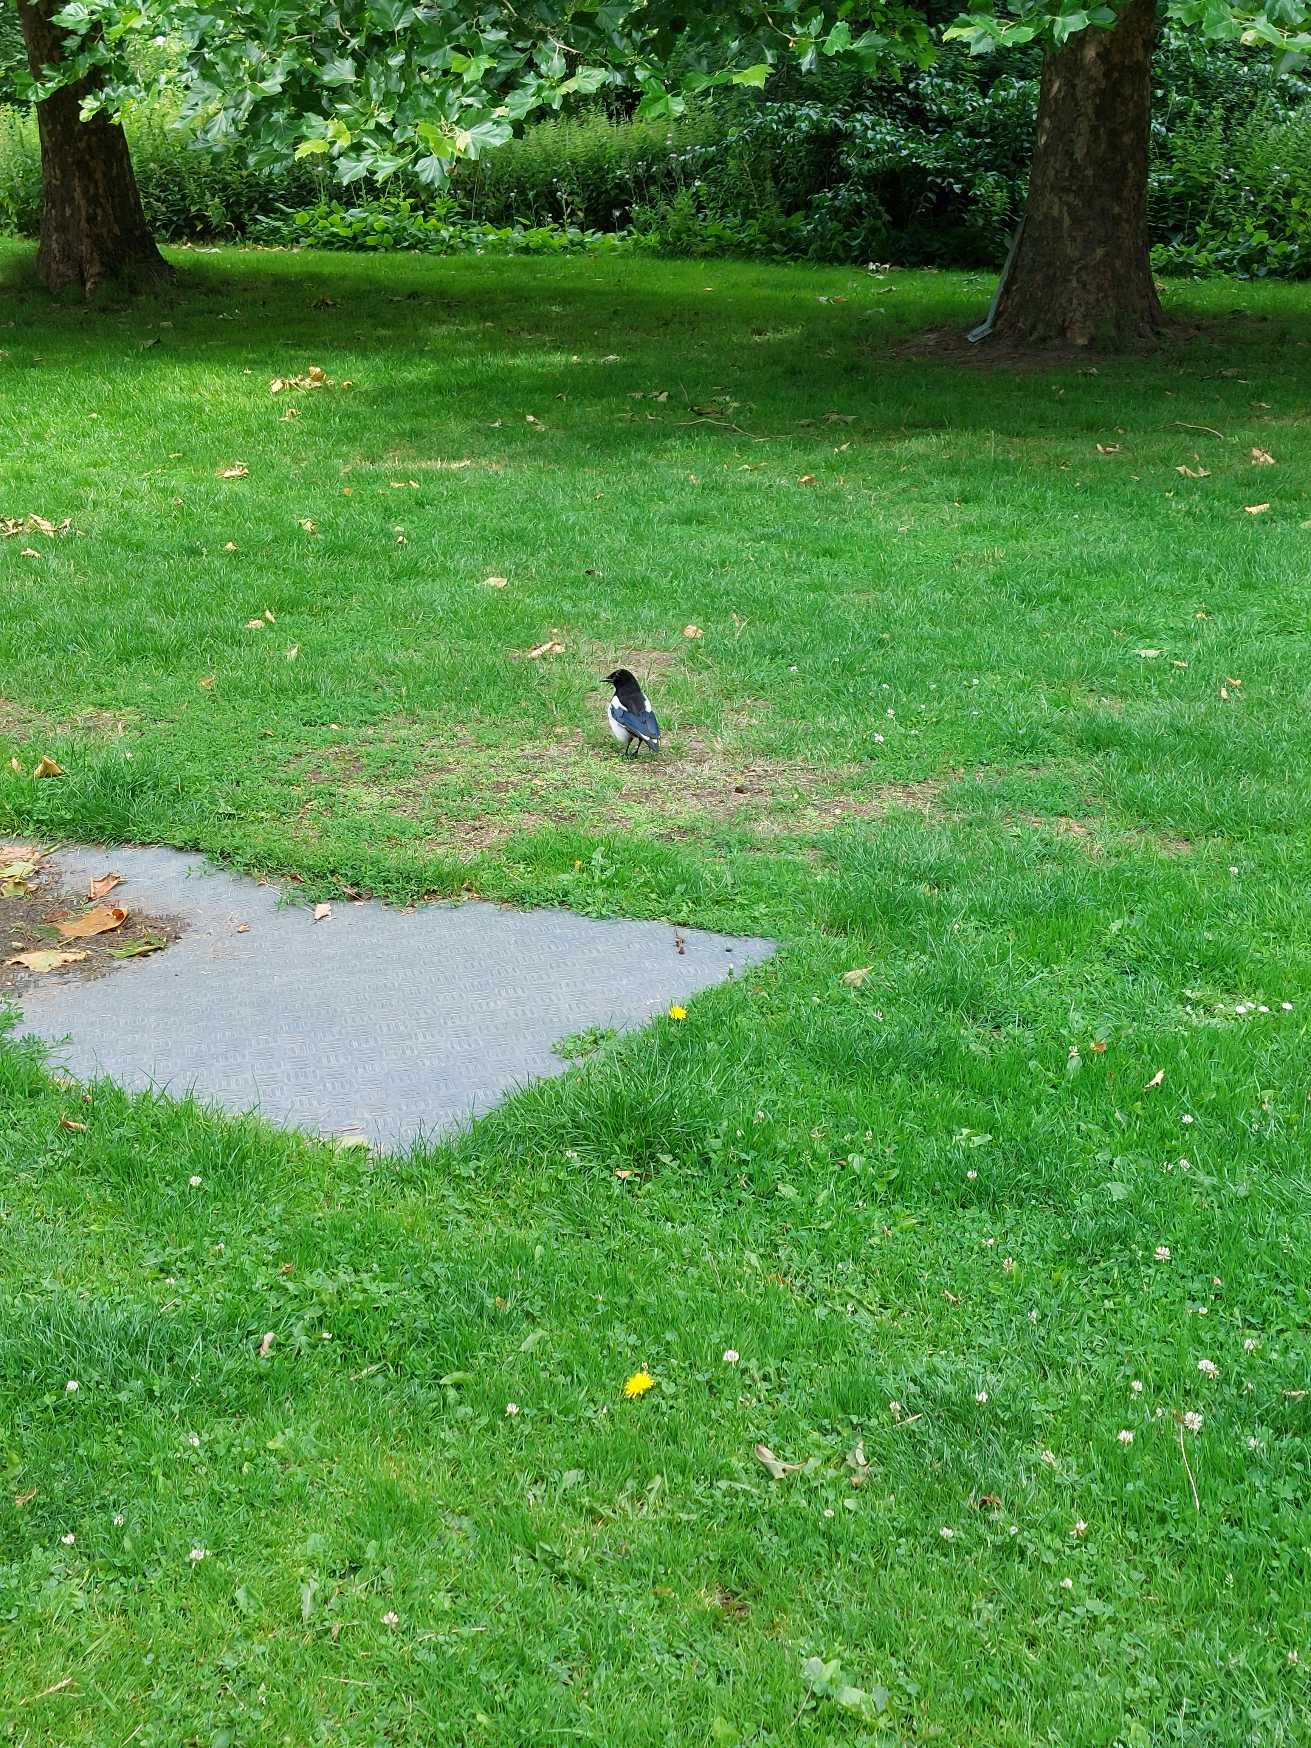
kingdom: Animalia
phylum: Chordata
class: Aves
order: Passeriformes
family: Corvidae
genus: Pica
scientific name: Pica pica
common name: Husskade
